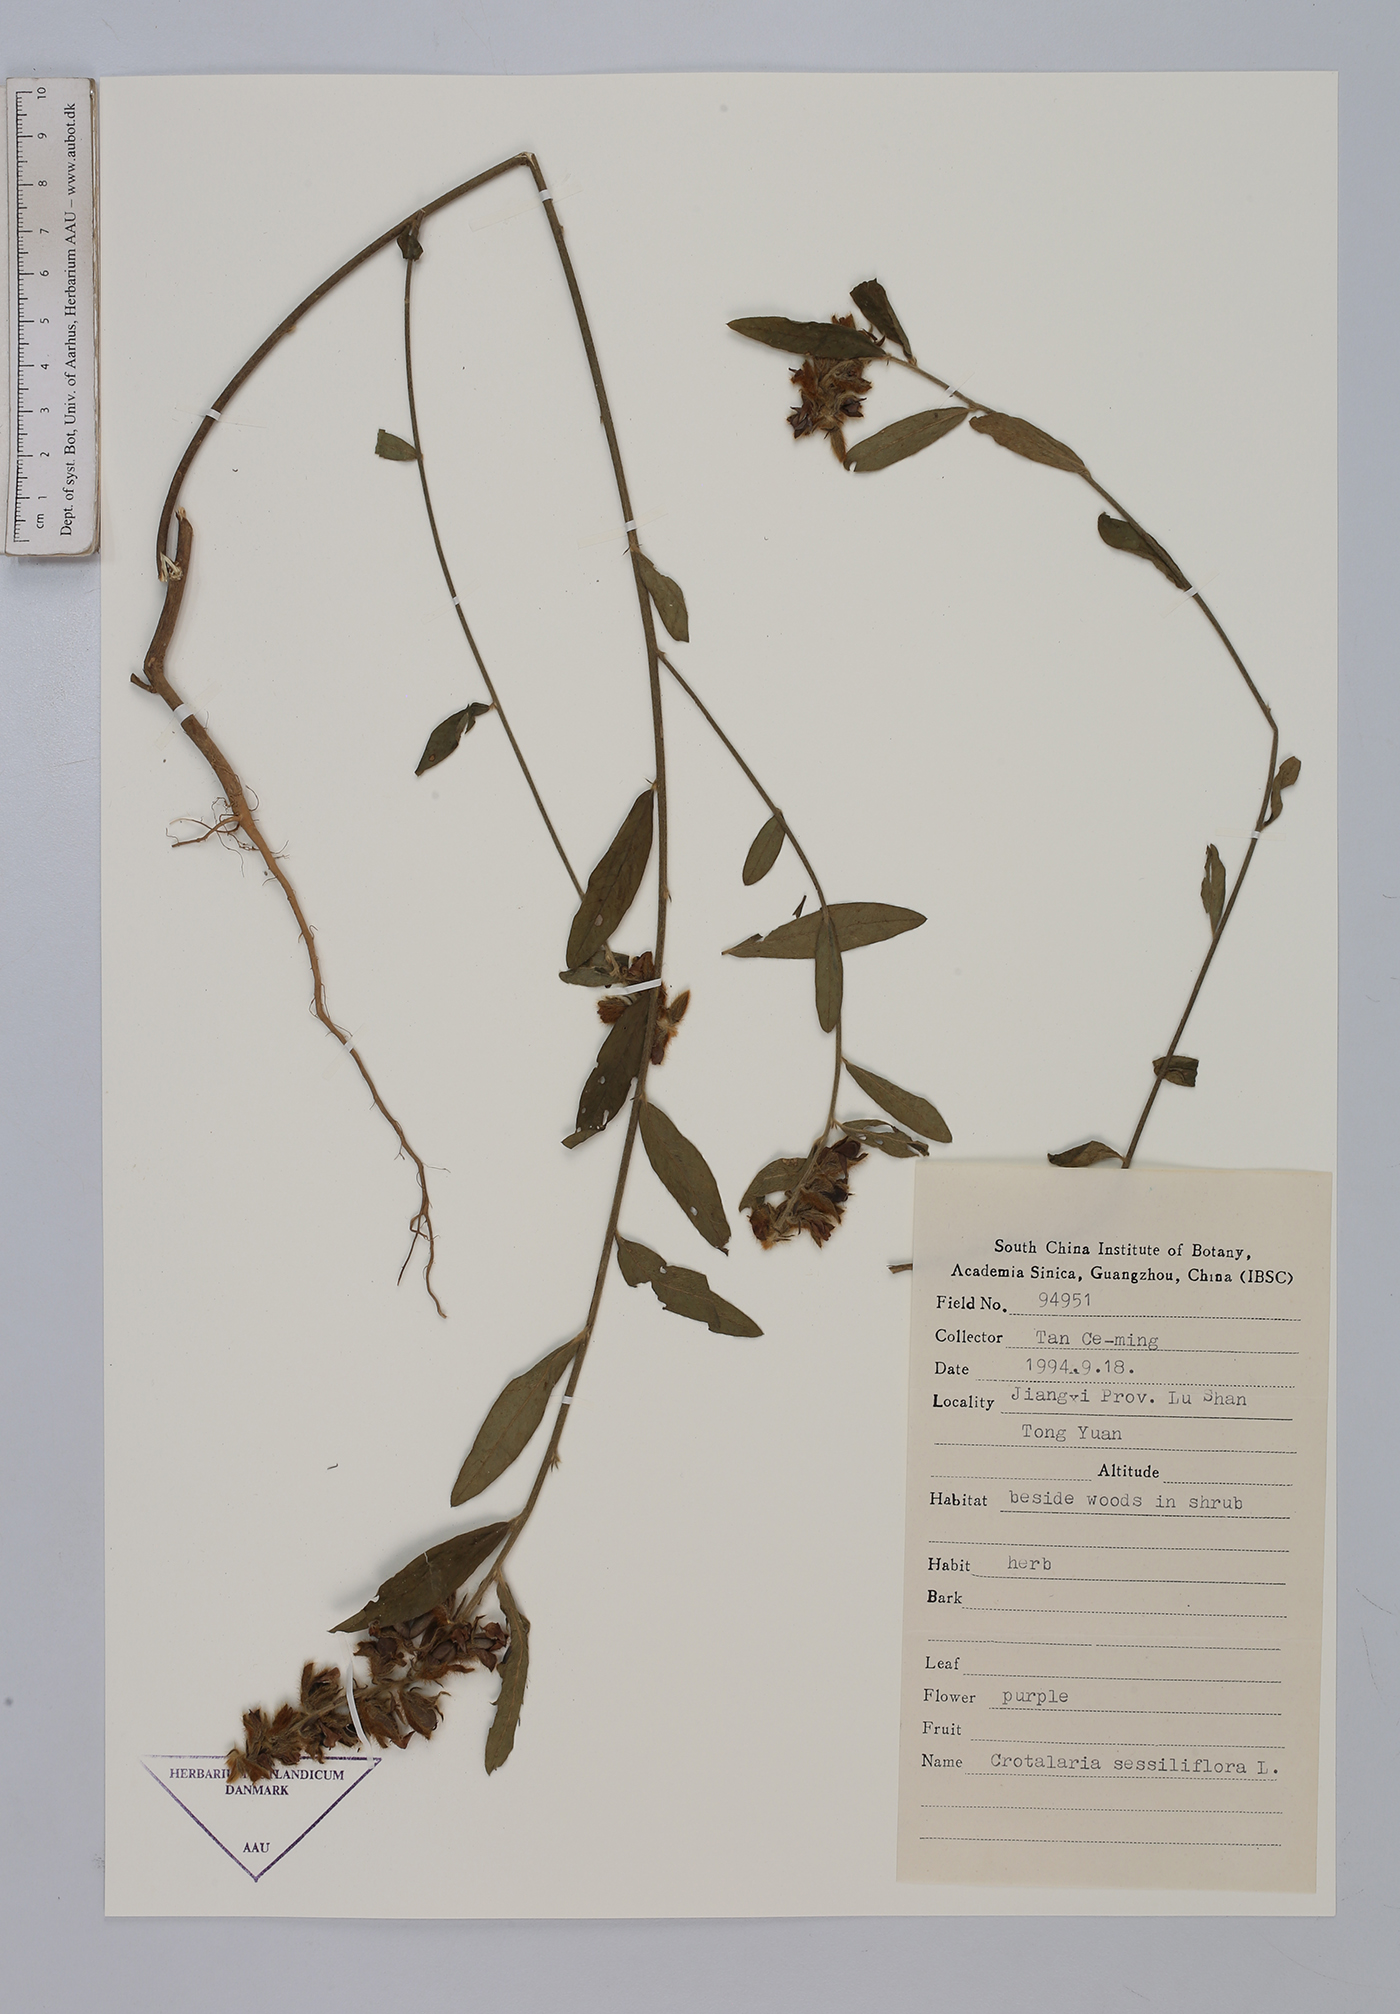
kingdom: Plantae
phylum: Tracheophyta
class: Magnoliopsida
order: Fabales
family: Fabaceae
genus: Crotalaria
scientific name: Crotalaria sessiliflora
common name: Rattlebox
